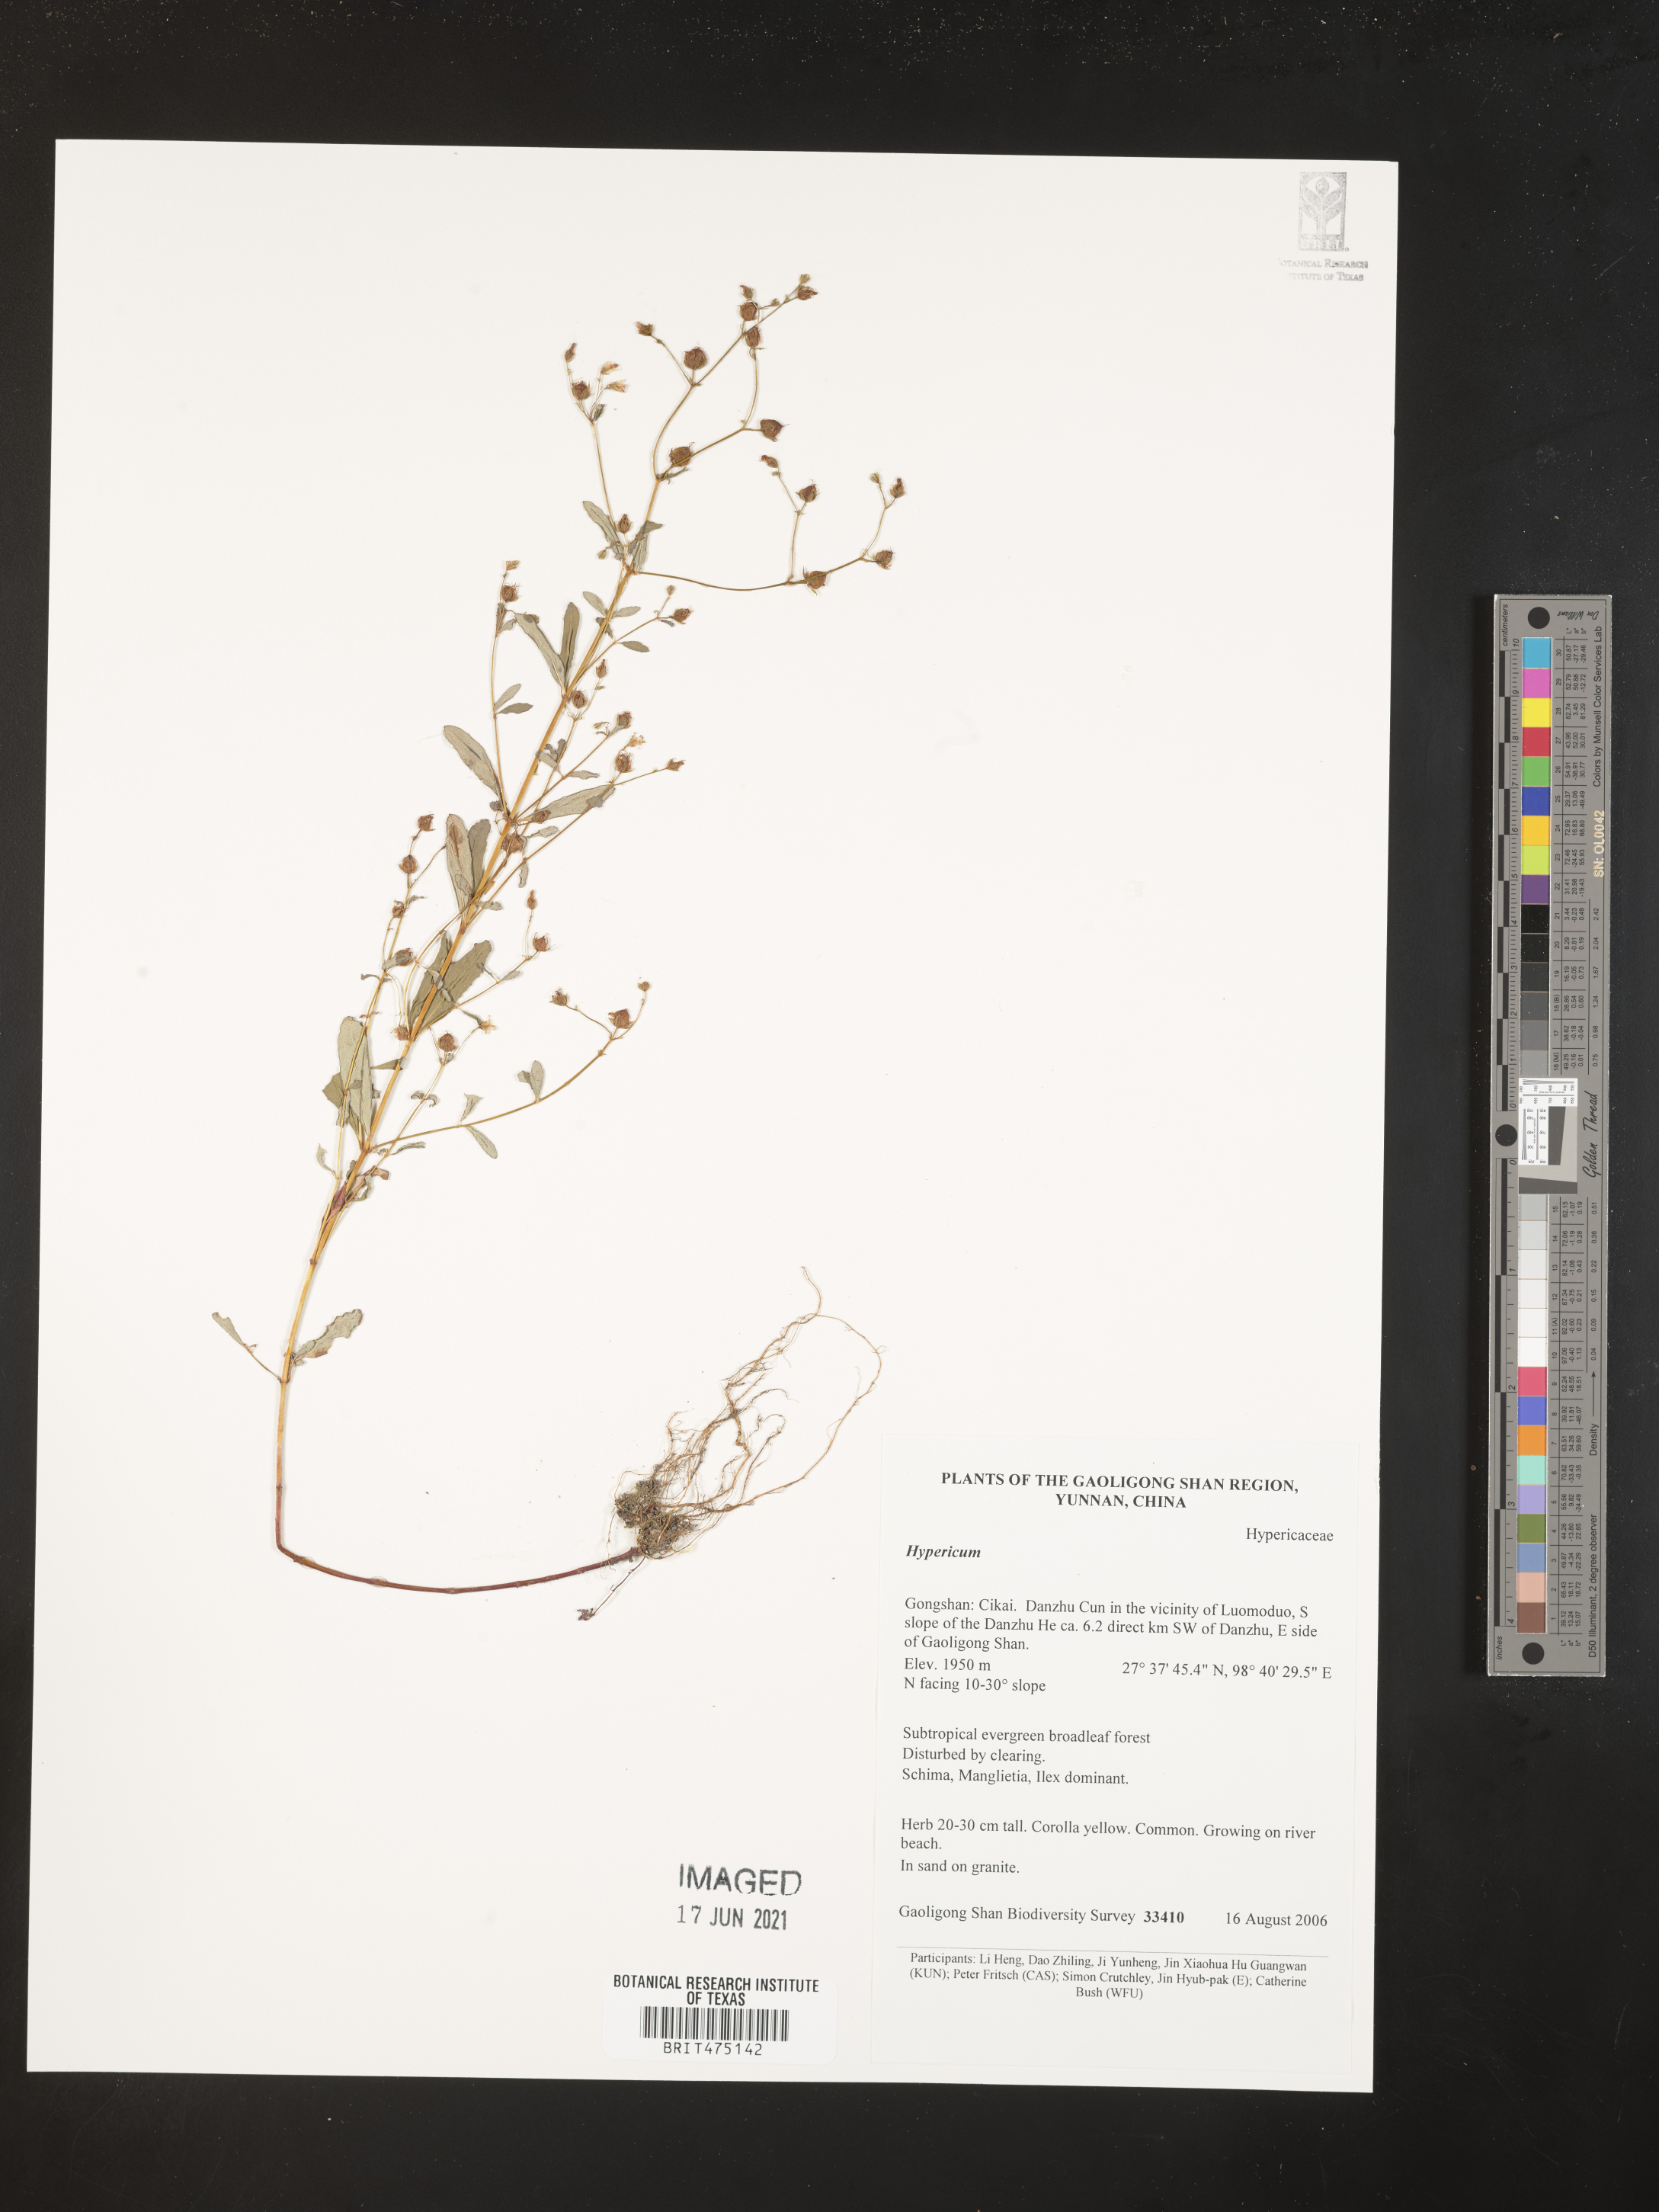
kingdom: Plantae
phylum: Tracheophyta
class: Magnoliopsida
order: Malpighiales
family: Hypericaceae
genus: Hypericum
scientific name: Hypericum
